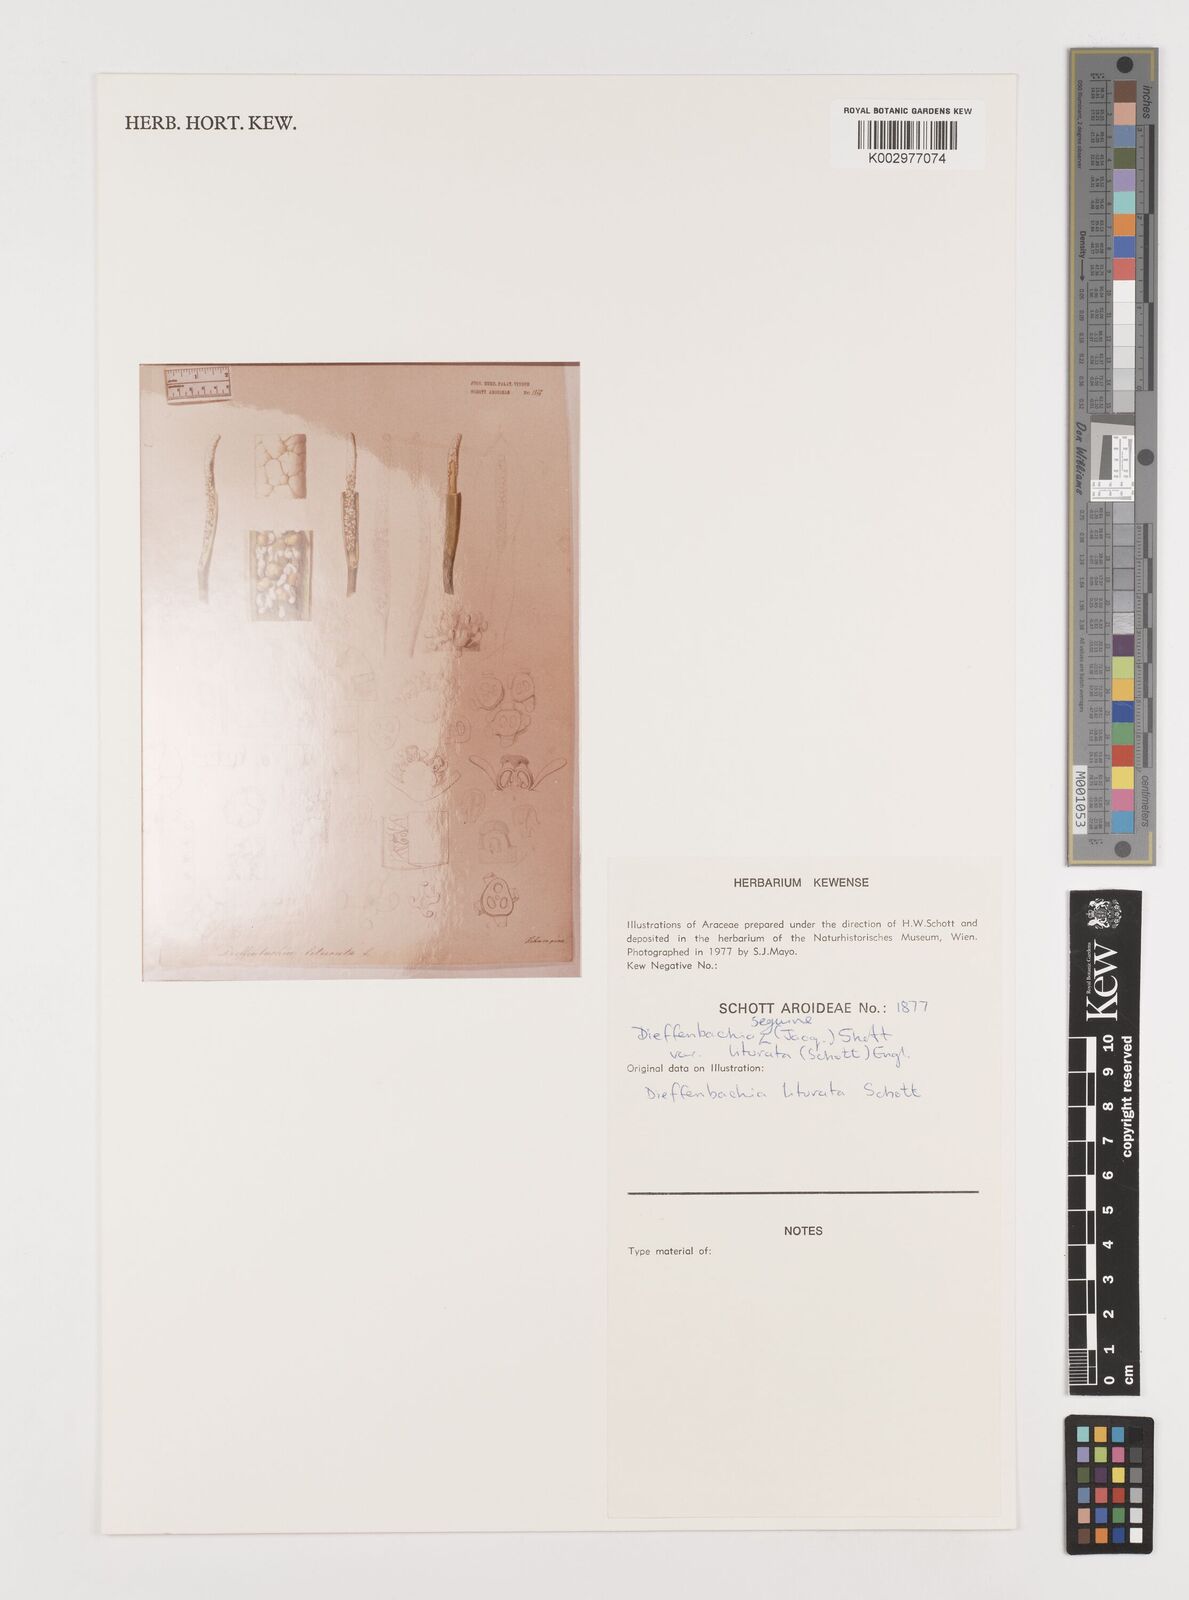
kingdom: Plantae
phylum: Tracheophyta
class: Liliopsida
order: Alismatales
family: Araceae
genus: Dieffenbachia
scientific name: Dieffenbachia seguine
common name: Dumbcane
